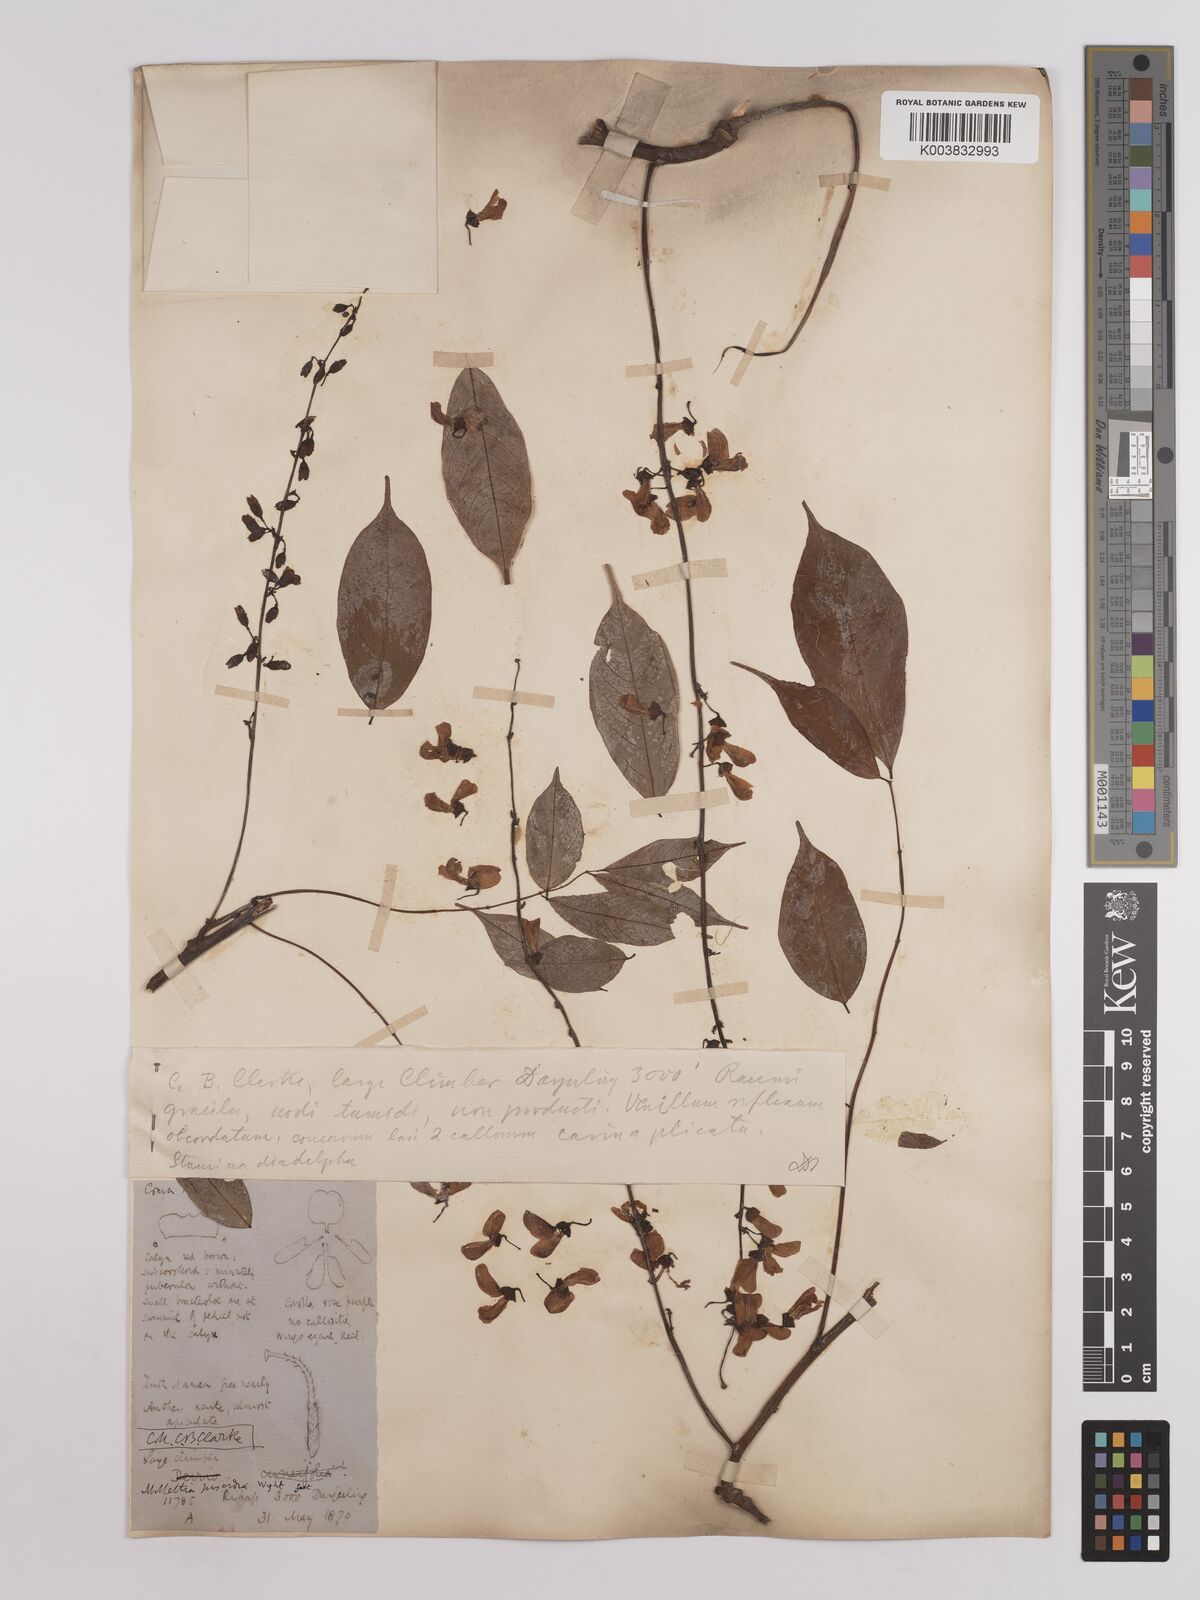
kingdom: Plantae
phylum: Tracheophyta
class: Magnoliopsida
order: Fabales
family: Fabaceae
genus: Derris
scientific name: Derris monticola
